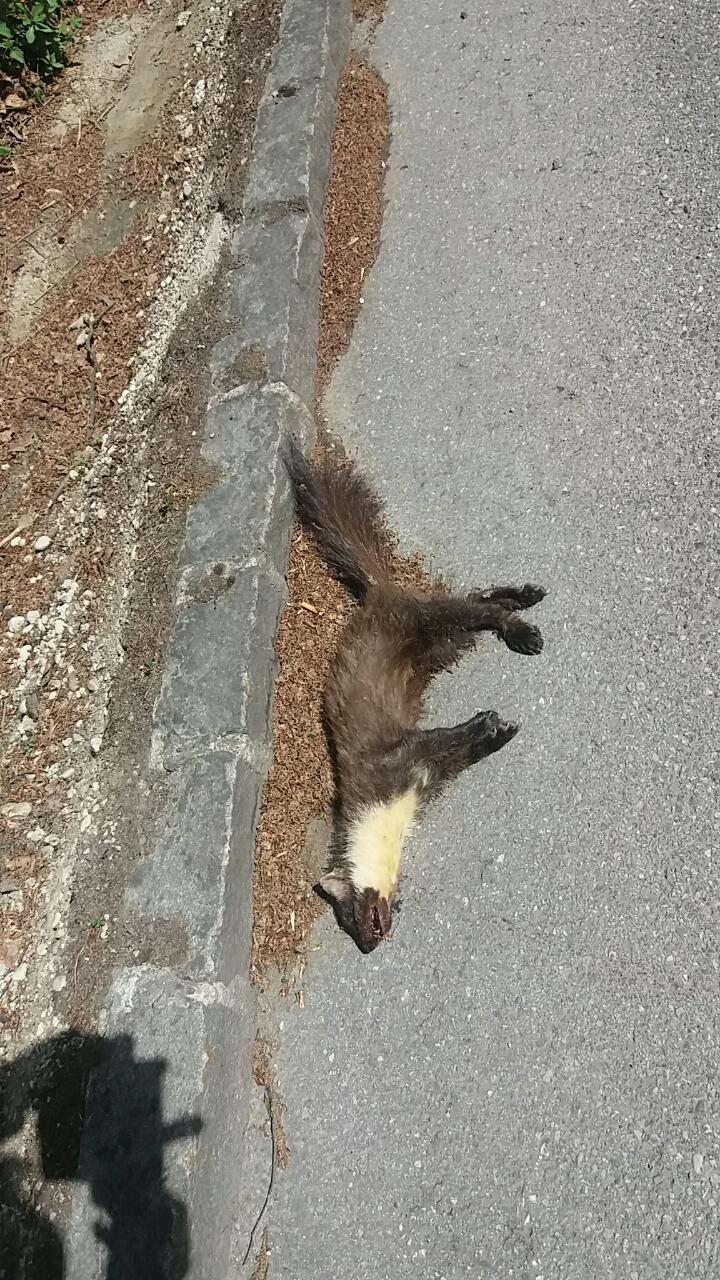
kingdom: Animalia
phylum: Chordata
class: Mammalia
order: Carnivora
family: Mustelidae
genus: Martes
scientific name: Martes martes
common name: European pine marten
